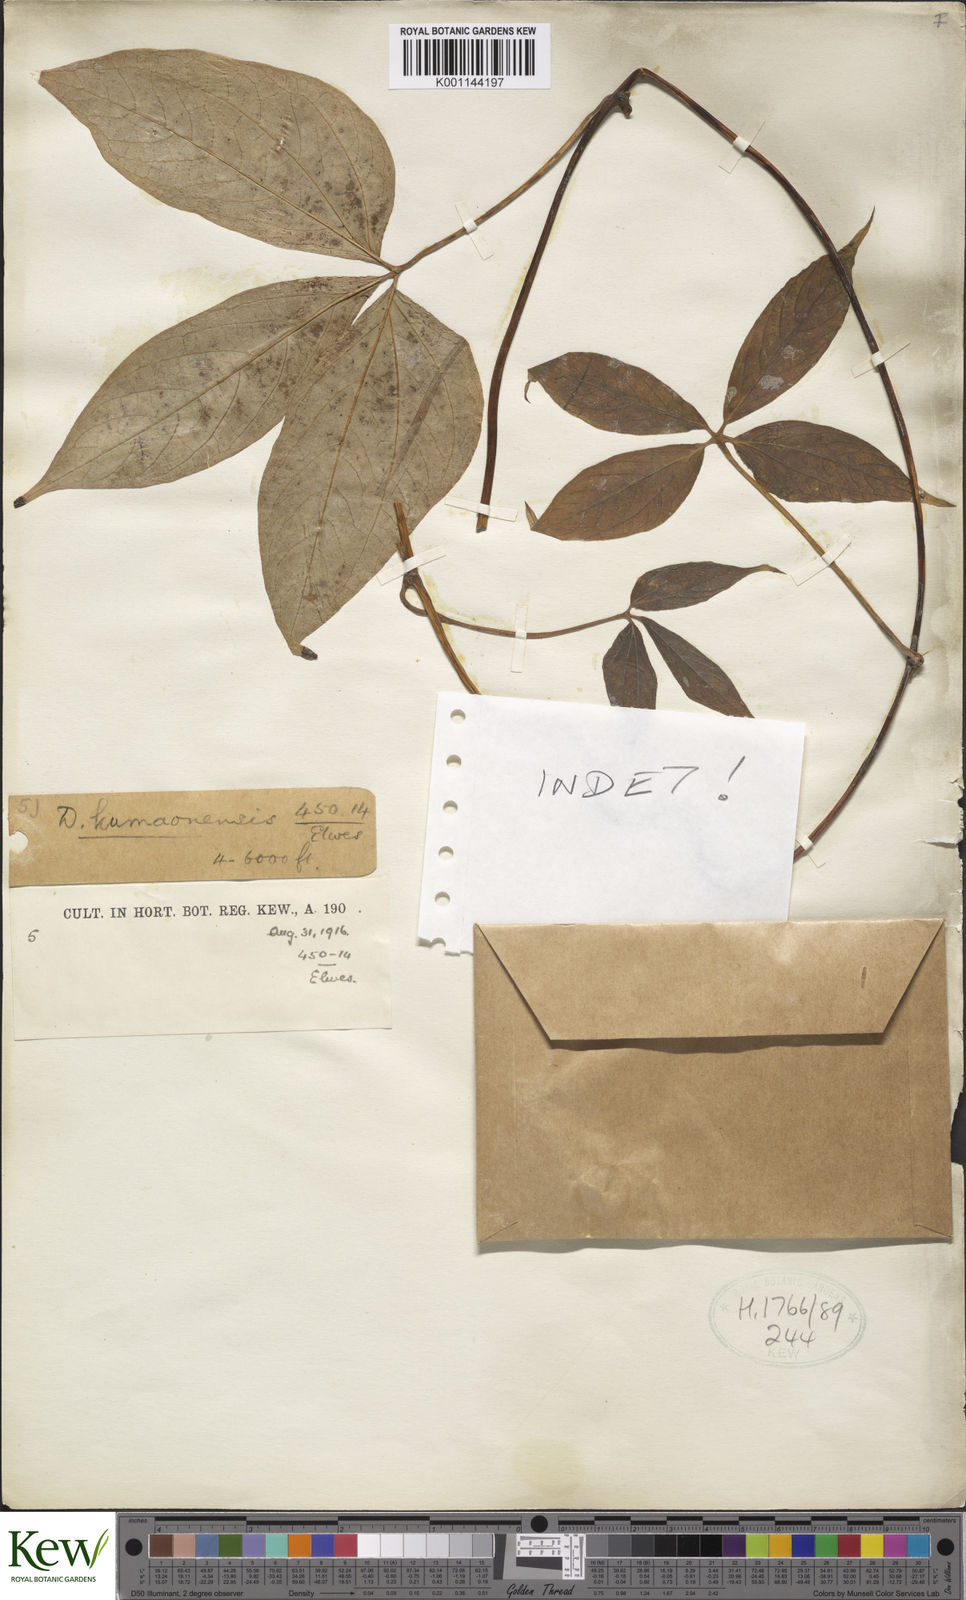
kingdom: Plantae
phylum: Tracheophyta
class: Liliopsida
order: Dioscoreales
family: Dioscoreaceae
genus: Dioscorea
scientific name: Dioscorea
